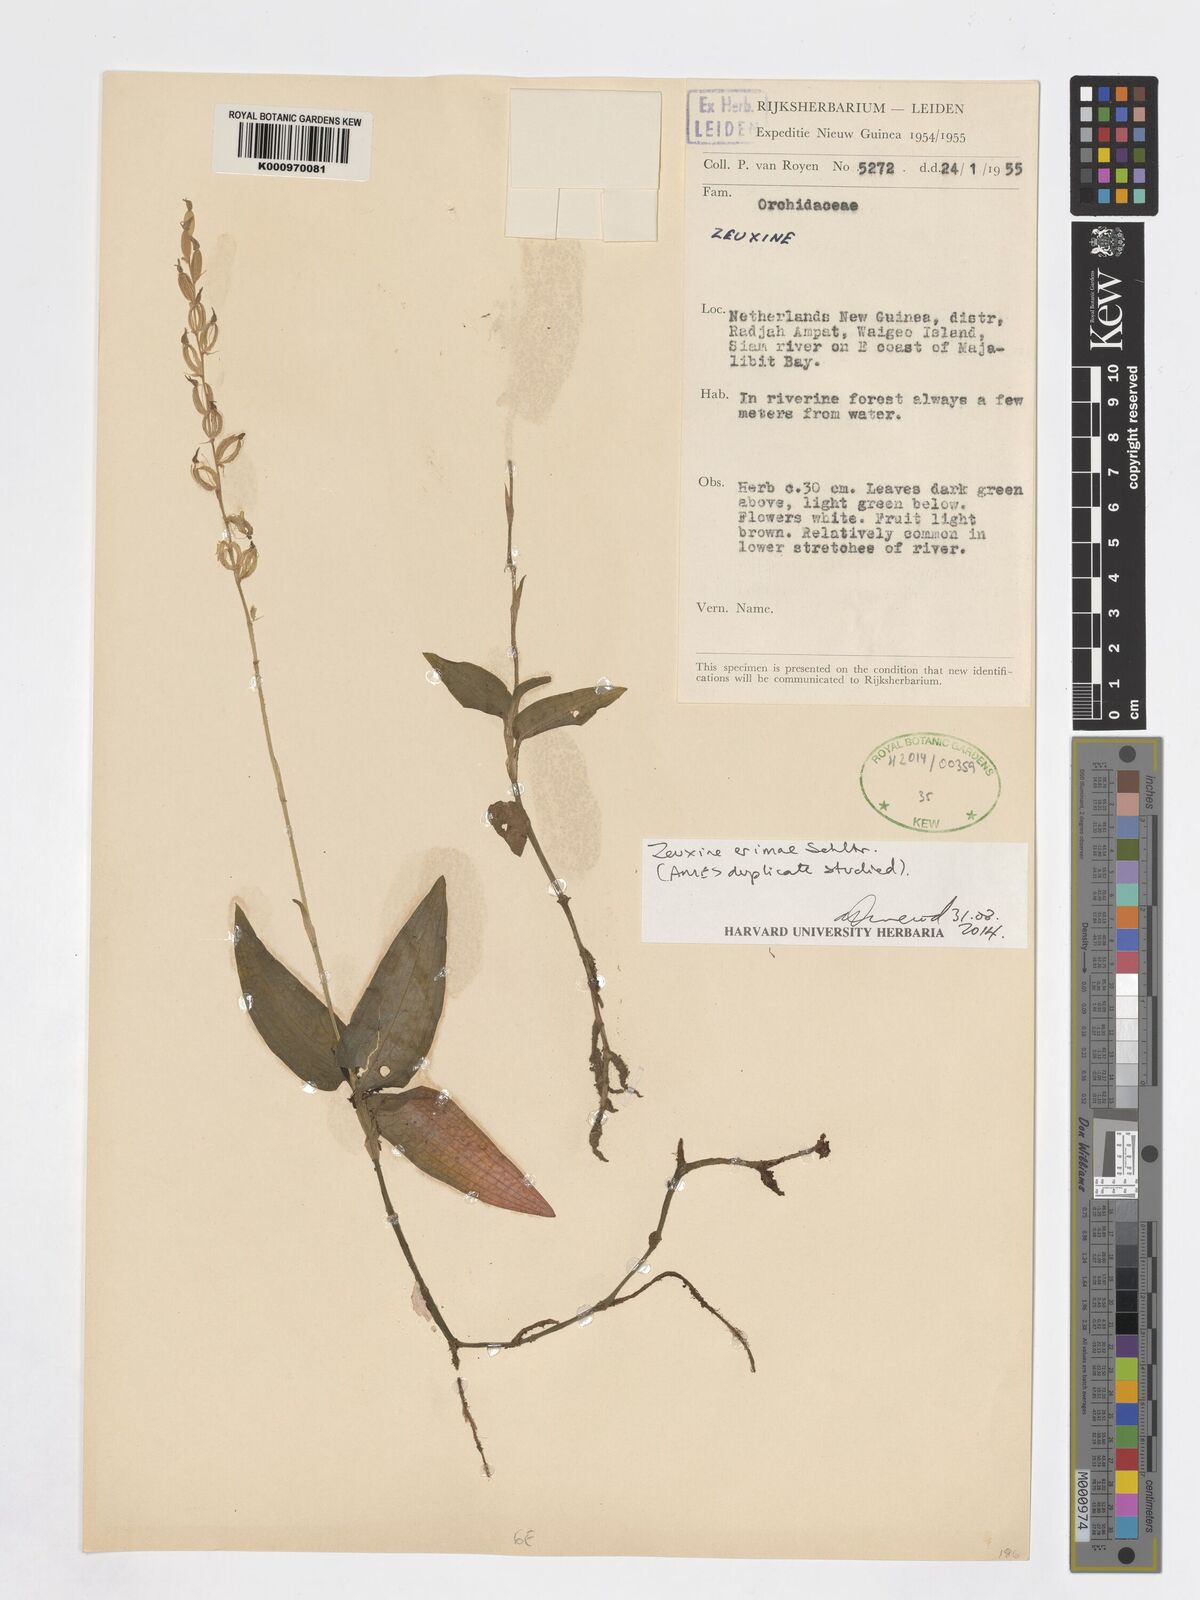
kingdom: Plantae
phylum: Tracheophyta
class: Liliopsida
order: Asparagales
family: Orchidaceae
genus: Zeuxine
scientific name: Zeuxine erimae
